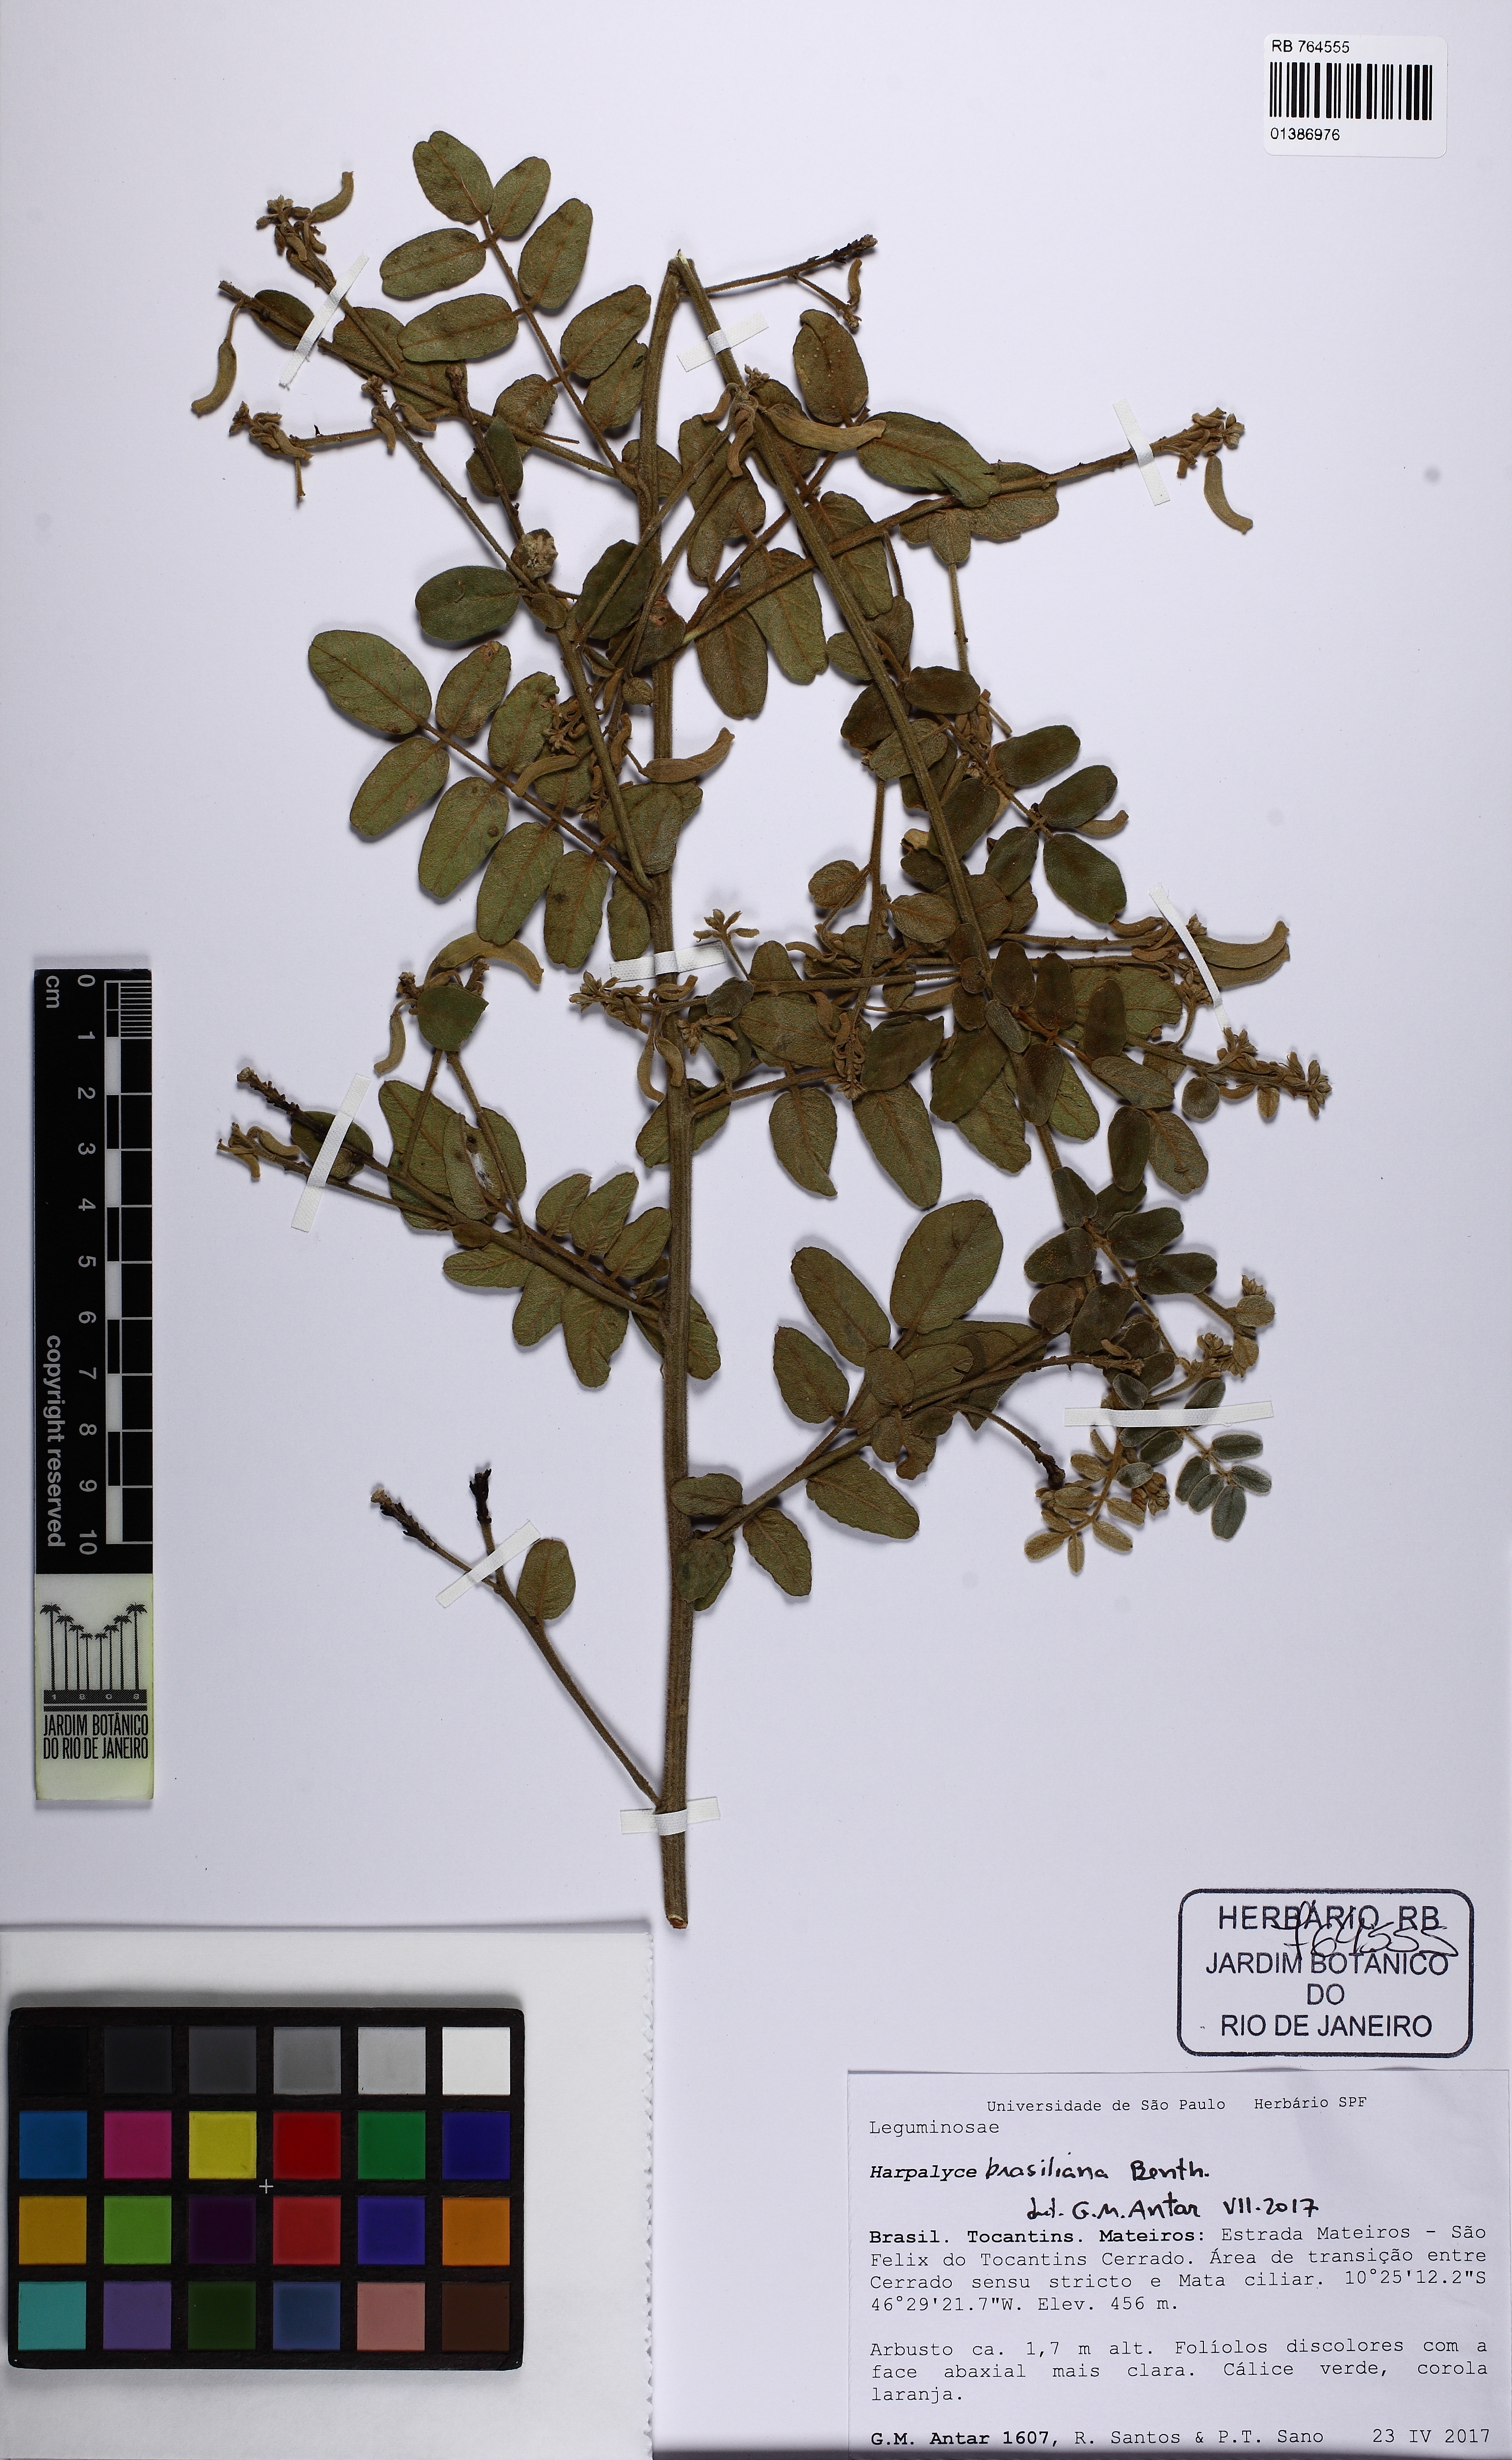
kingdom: Plantae
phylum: Tracheophyta
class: Magnoliopsida
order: Fabales
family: Fabaceae
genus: Harpalyce
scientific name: Harpalyce brasiliana
